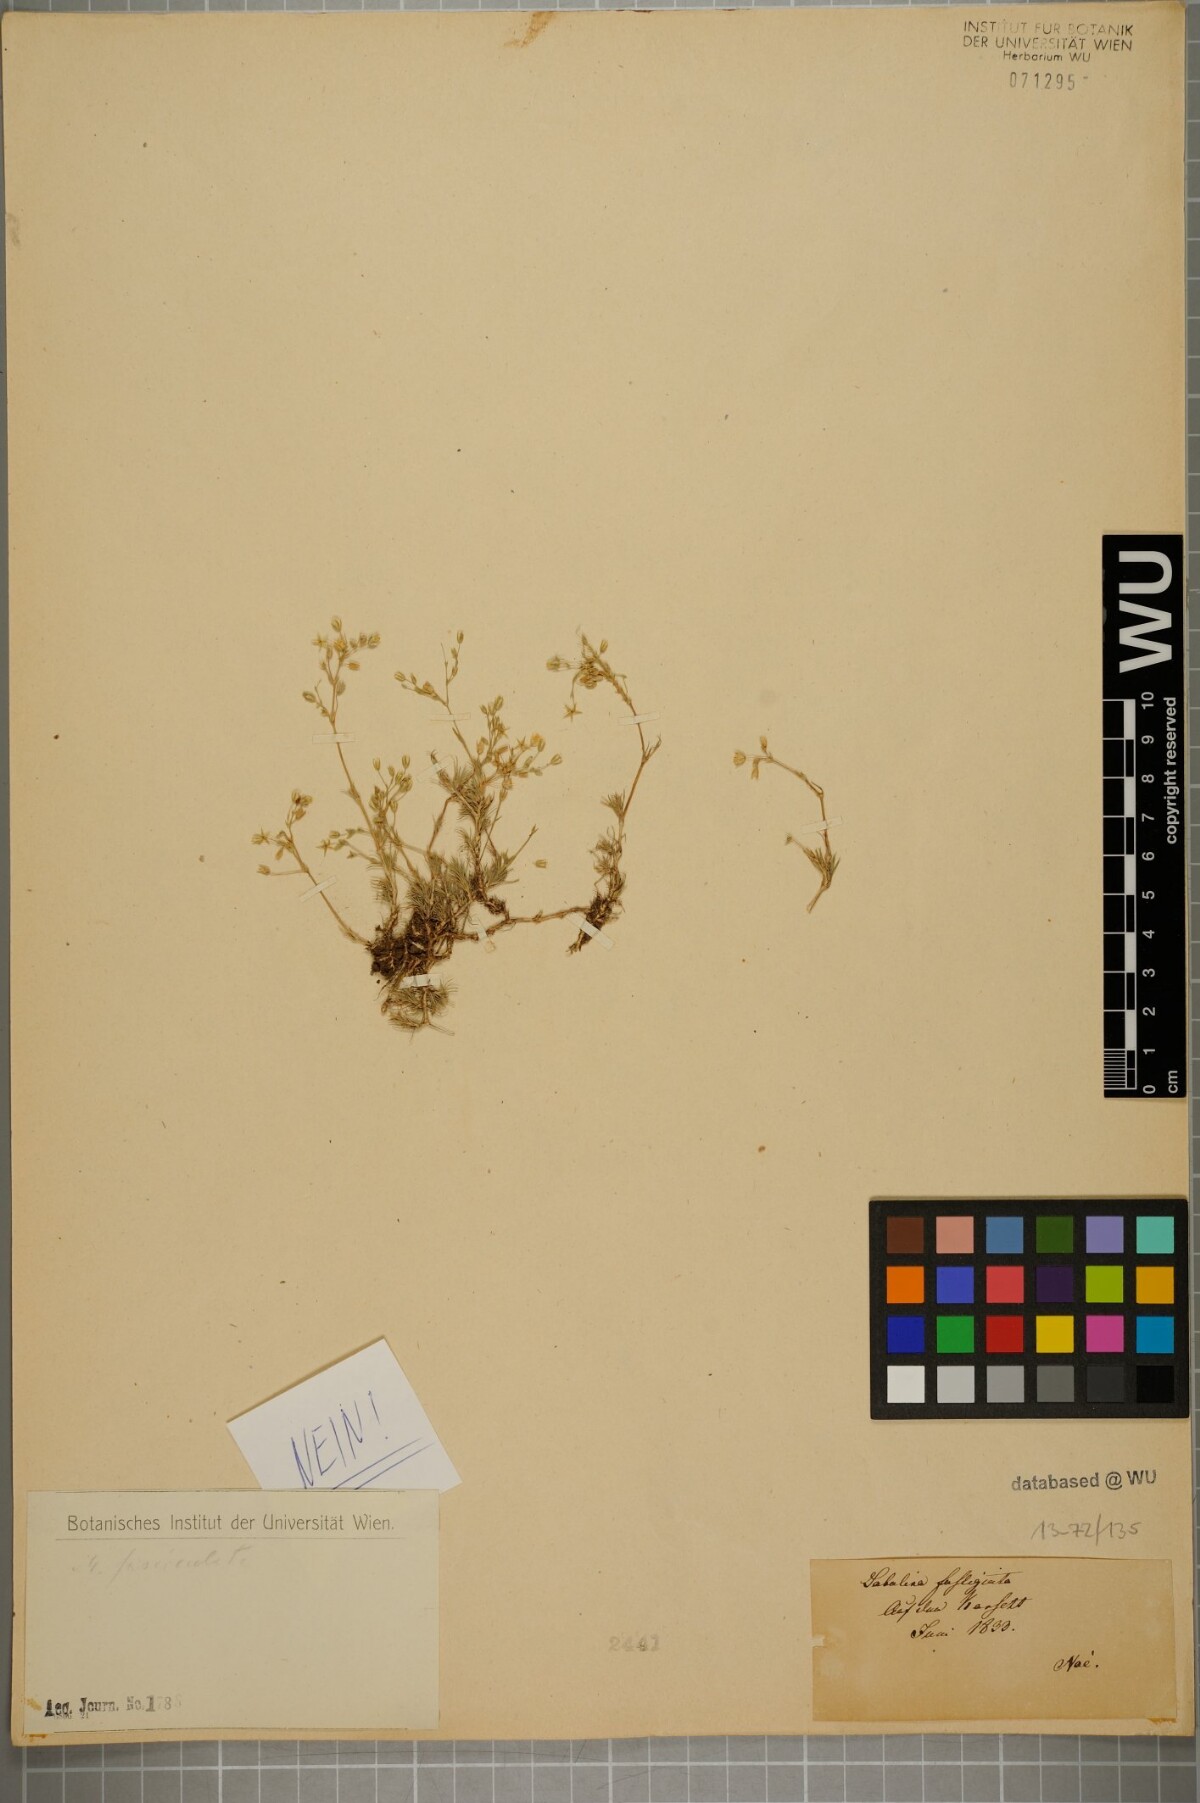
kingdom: Plantae
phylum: Tracheophyta
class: Magnoliopsida
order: Caryophyllales
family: Caryophyllaceae
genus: Sabulina
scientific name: Sabulina glaucina
